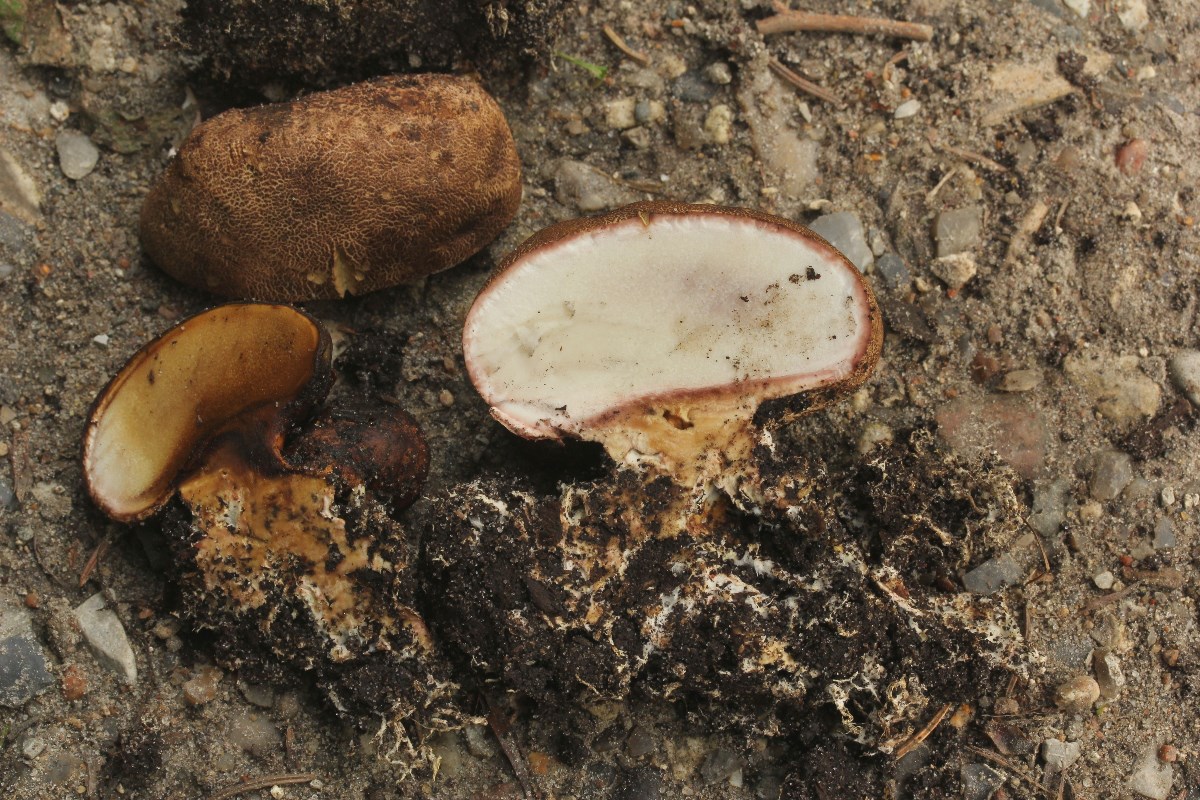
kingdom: Fungi
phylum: Basidiomycota
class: Agaricomycetes
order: Boletales
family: Sclerodermataceae
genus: Scleroderma
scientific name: Scleroderma verrucosum
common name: stilket bruskbold
